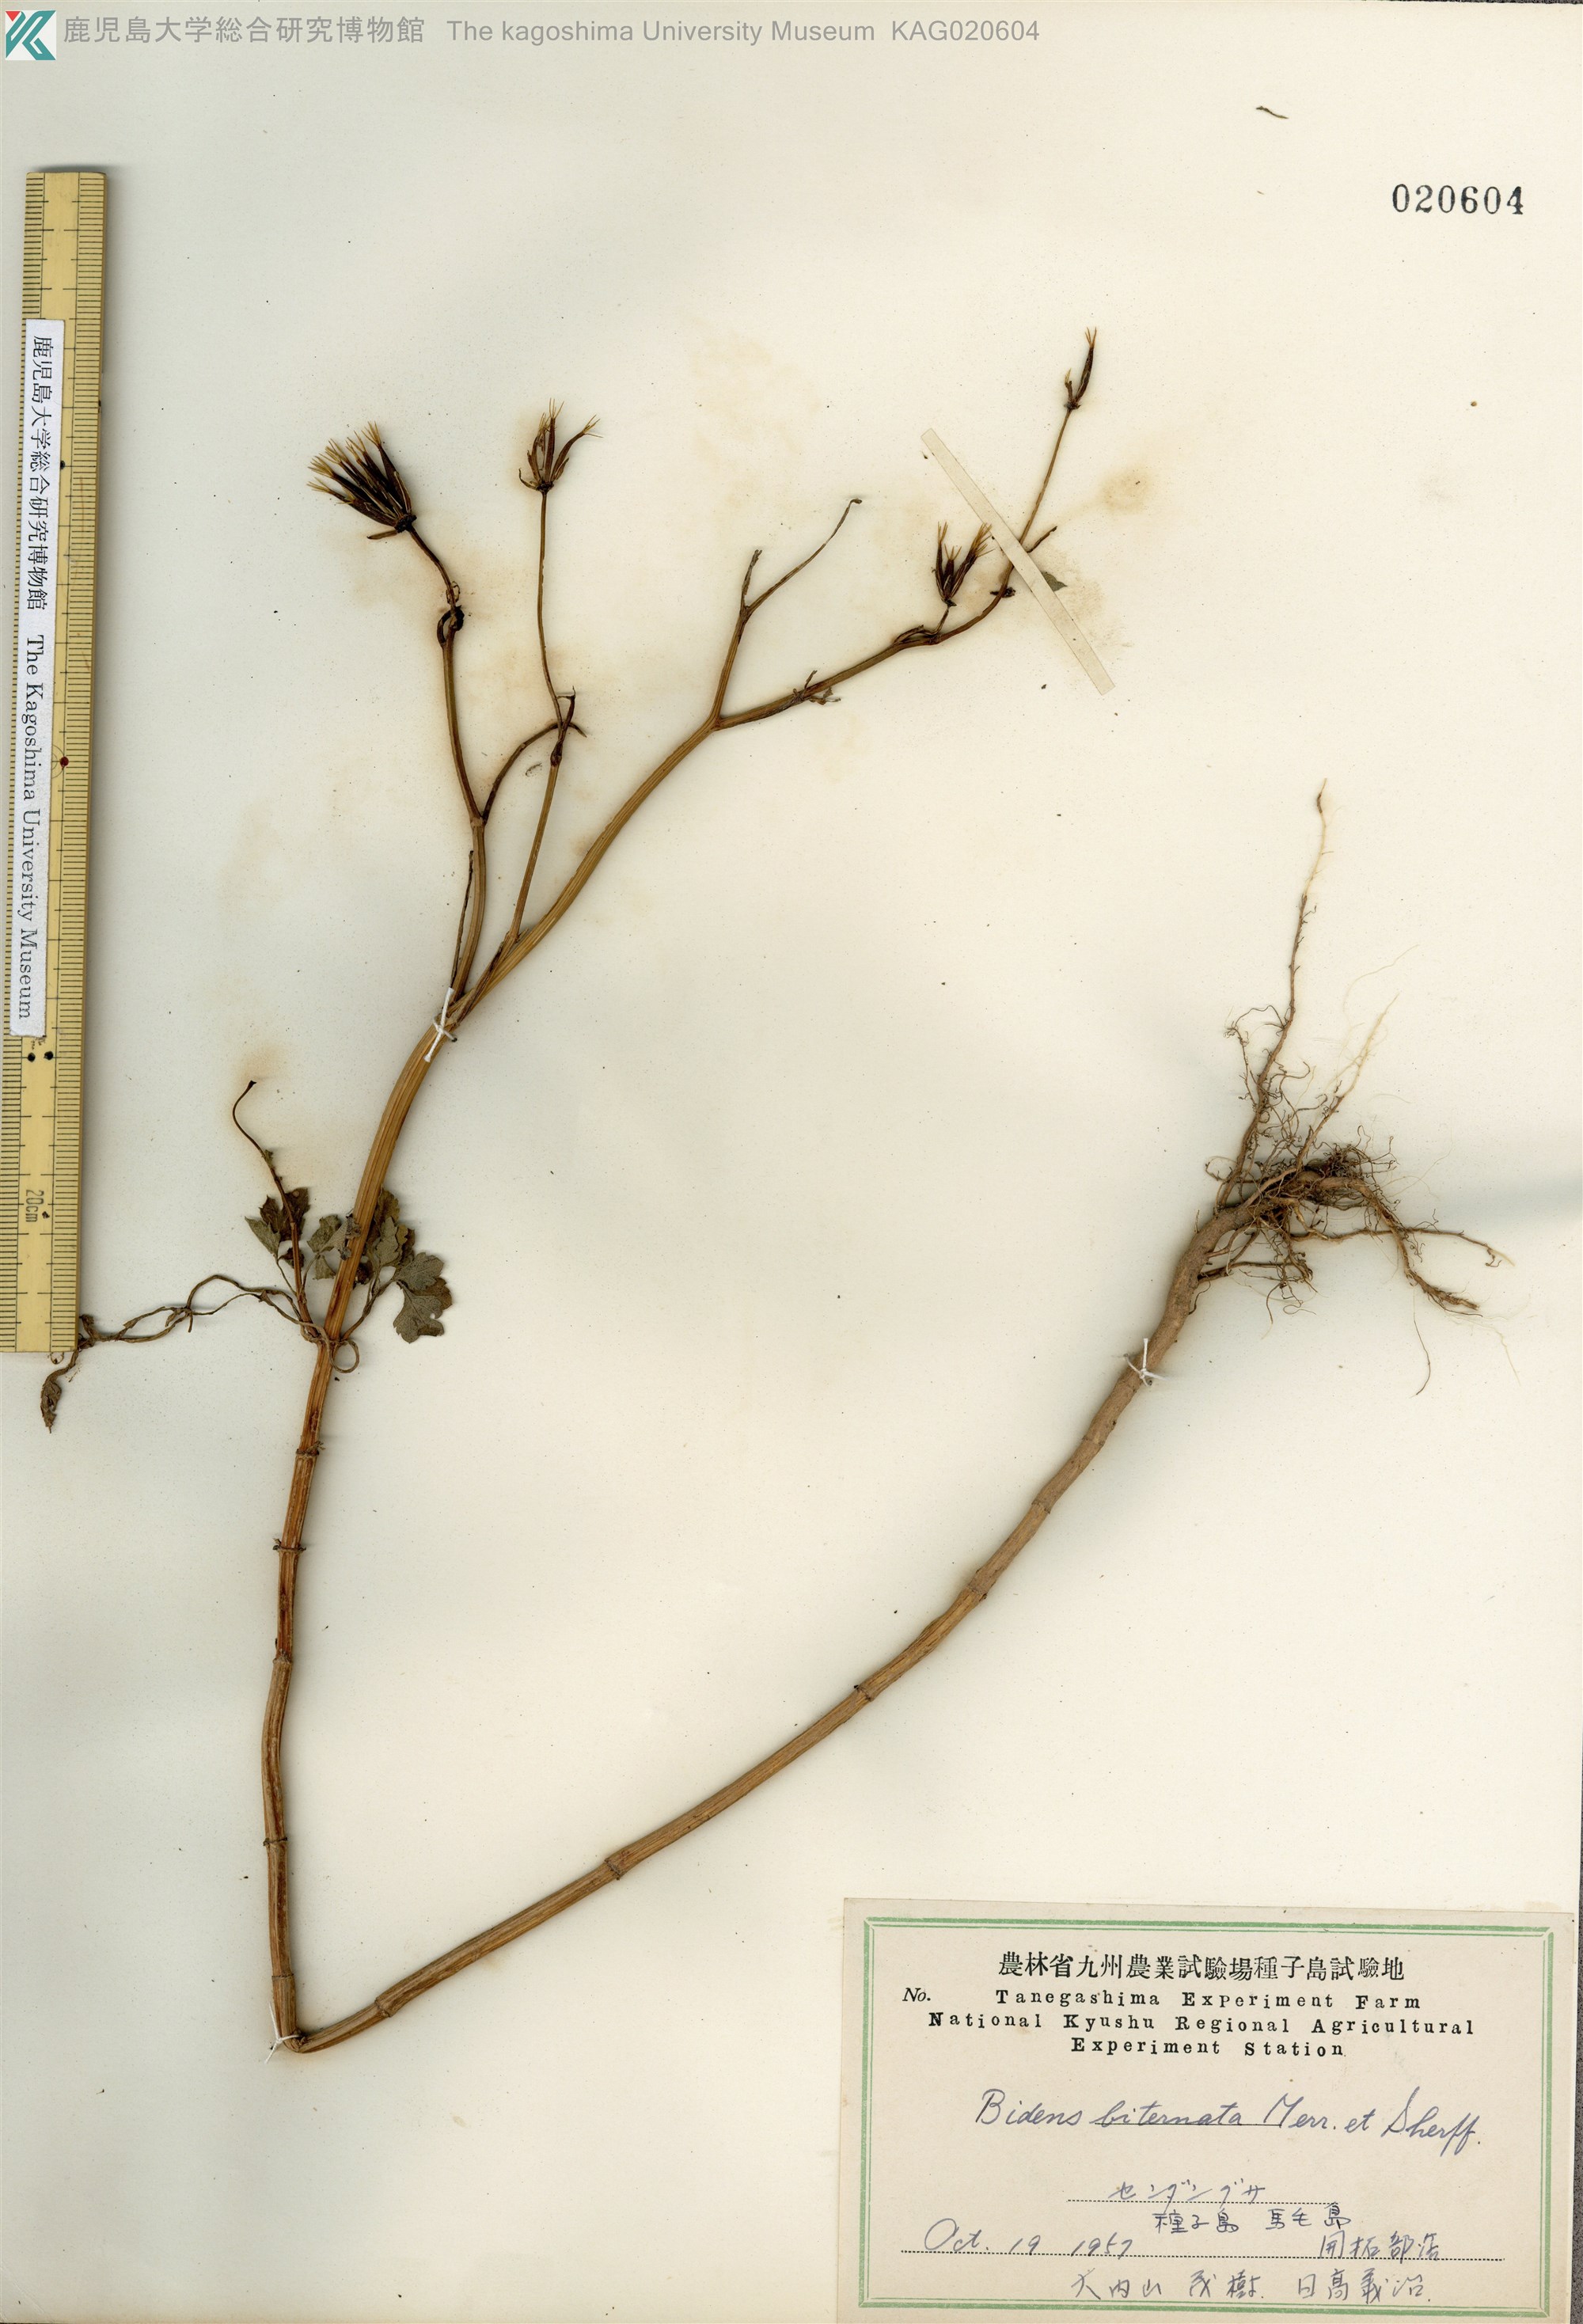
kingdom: Plantae
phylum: Tracheophyta
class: Magnoliopsida
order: Asterales
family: Asteraceae
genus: Bidens
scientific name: Bidens biternata
